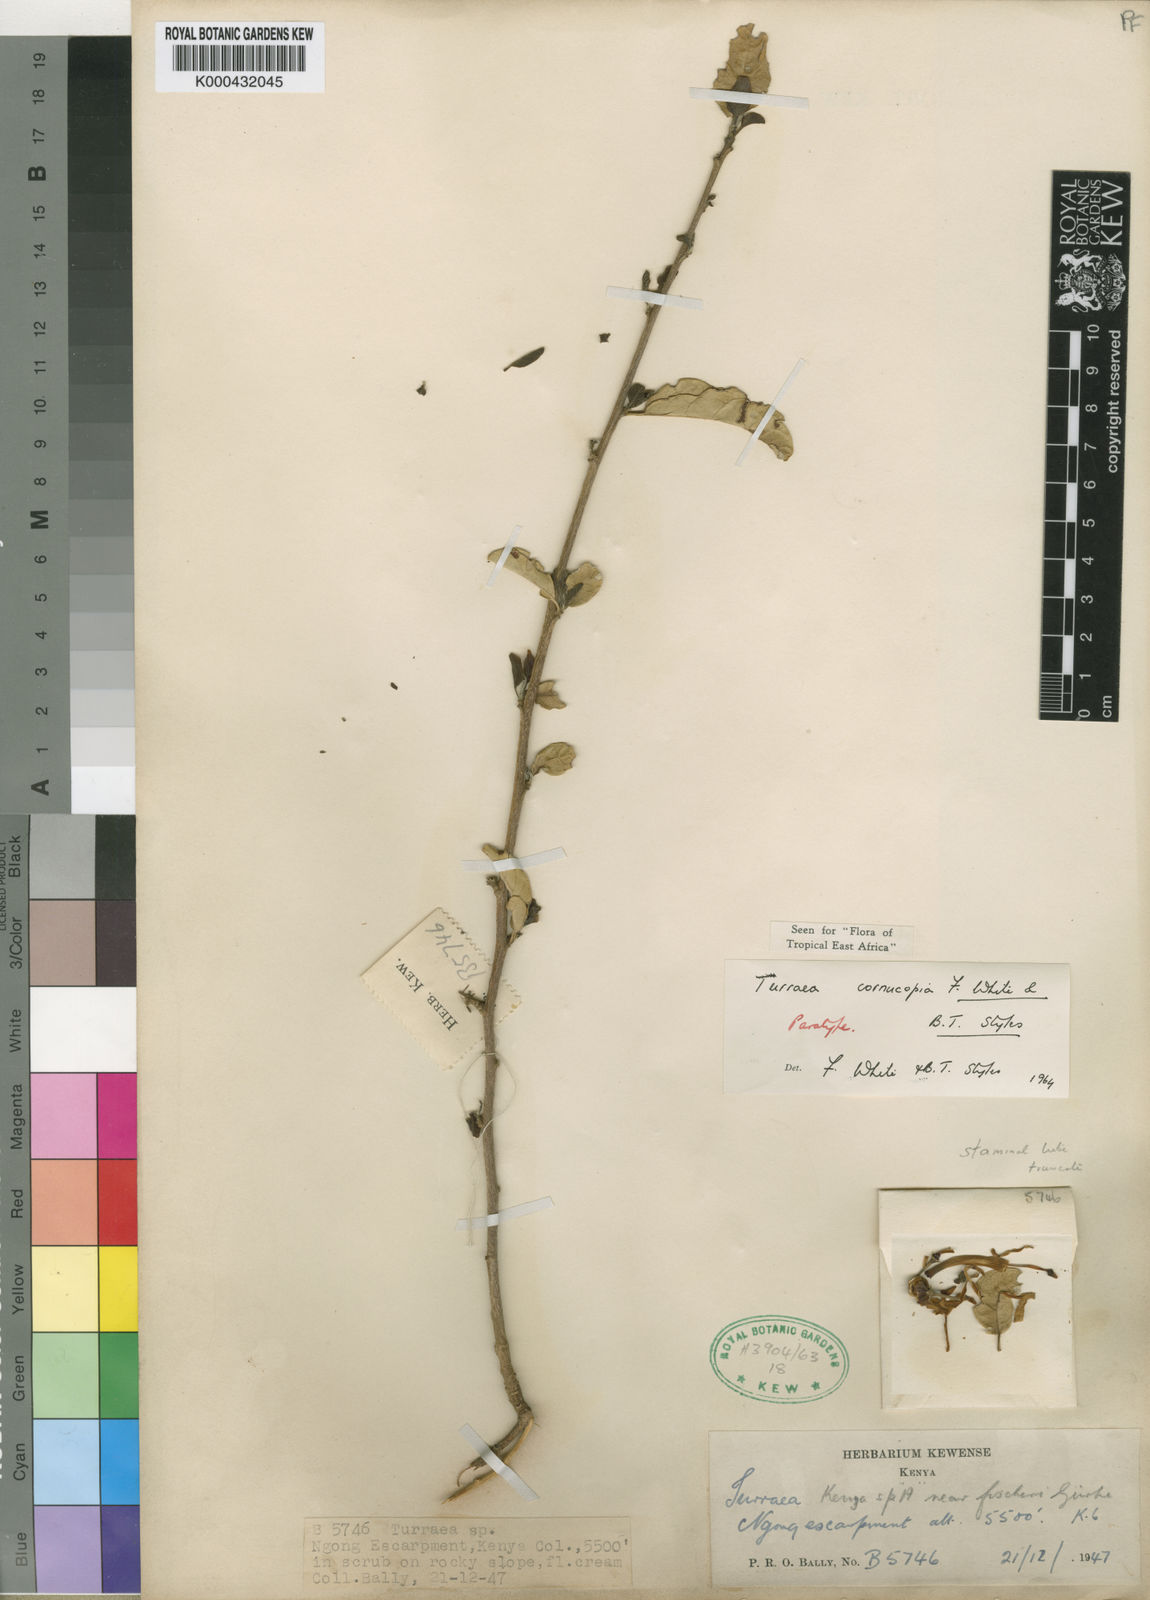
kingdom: Plantae
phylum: Tracheophyta
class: Magnoliopsida
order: Sapindales
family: Meliaceae
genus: Turraea
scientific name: Turraea cornucopia
